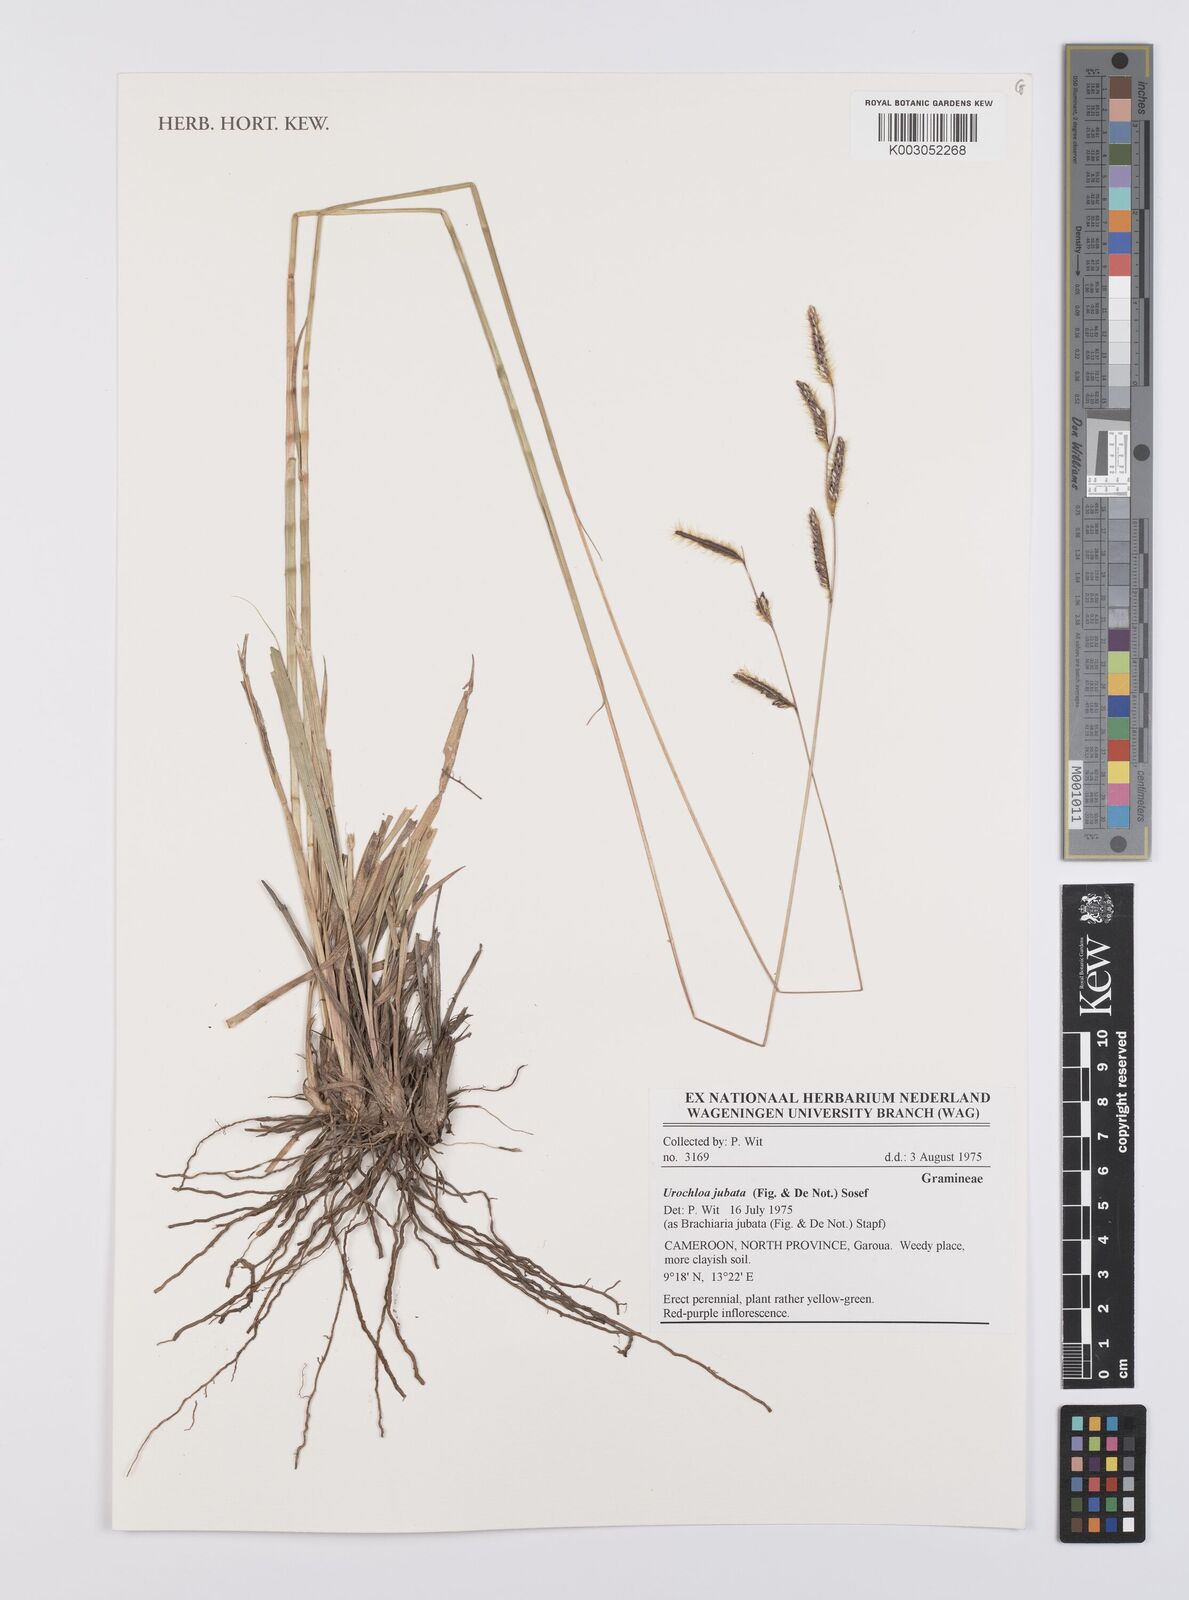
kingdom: Plantae
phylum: Tracheophyta
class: Liliopsida
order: Poales
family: Poaceae
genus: Urochloa
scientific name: Urochloa jubata
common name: Buffalograss
